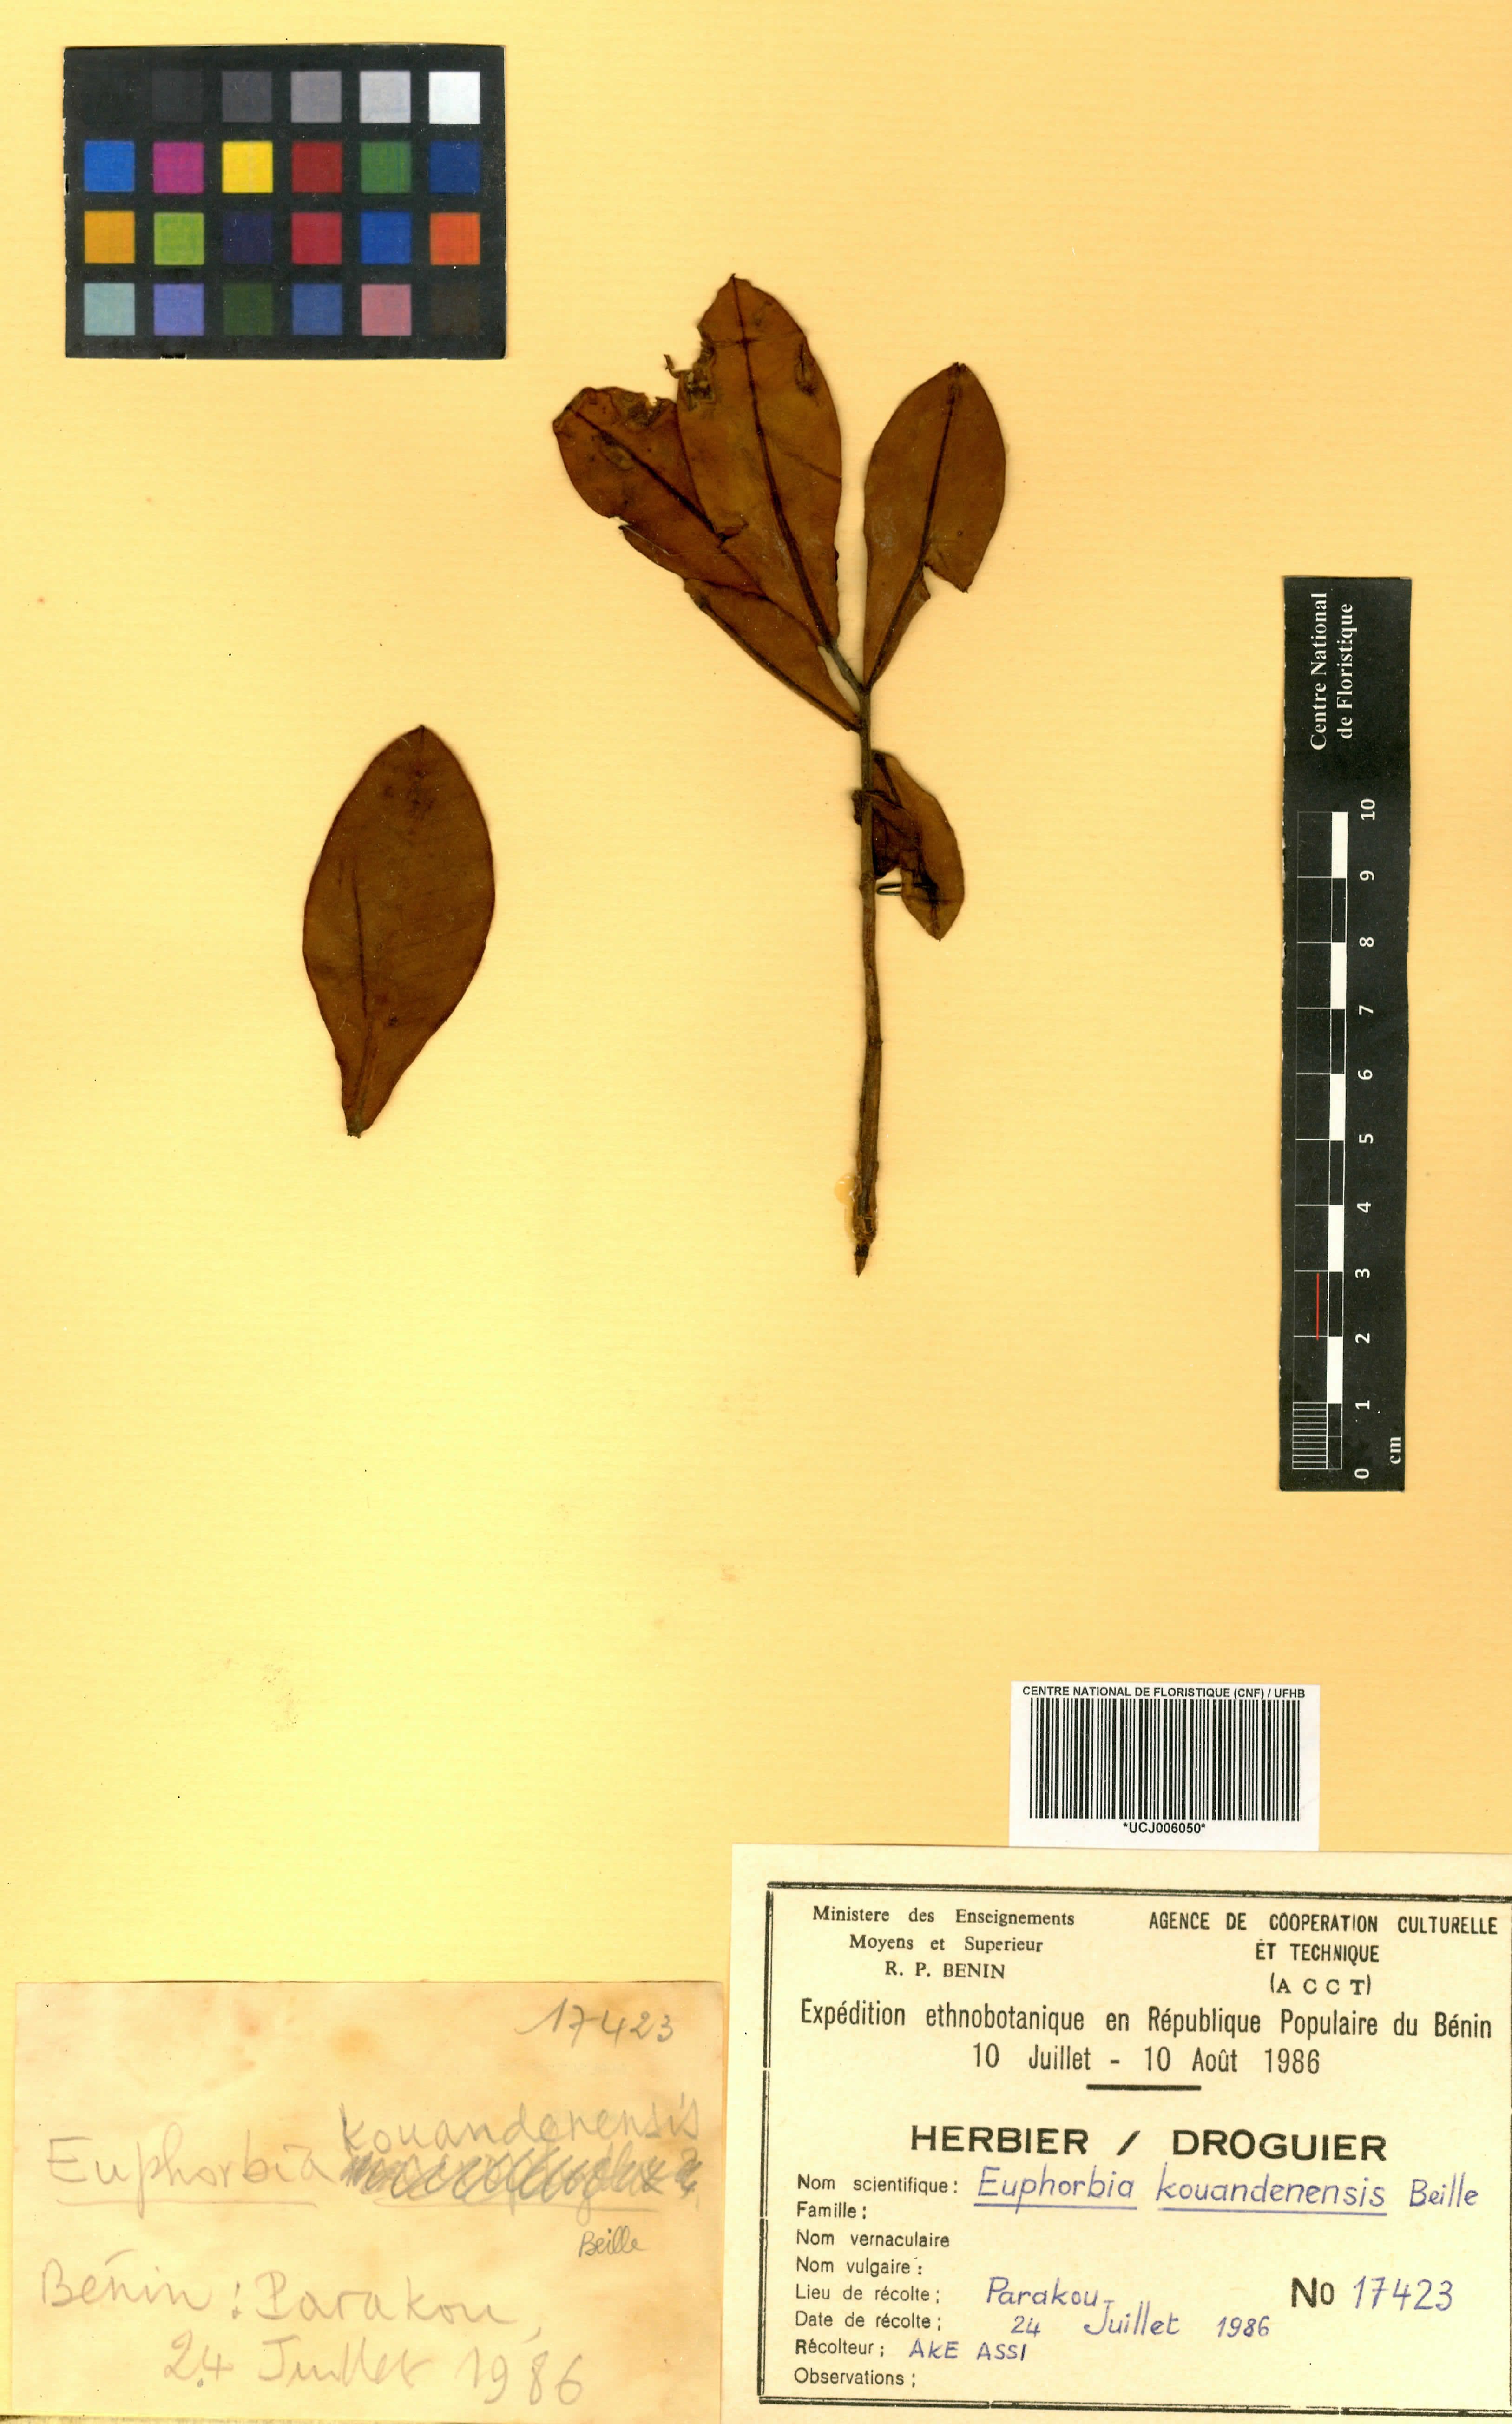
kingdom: Plantae
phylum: Tracheophyta
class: Magnoliopsida
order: Malpighiales
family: Euphorbiaceae
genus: Euphorbia
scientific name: Euphorbia kouandenensis
